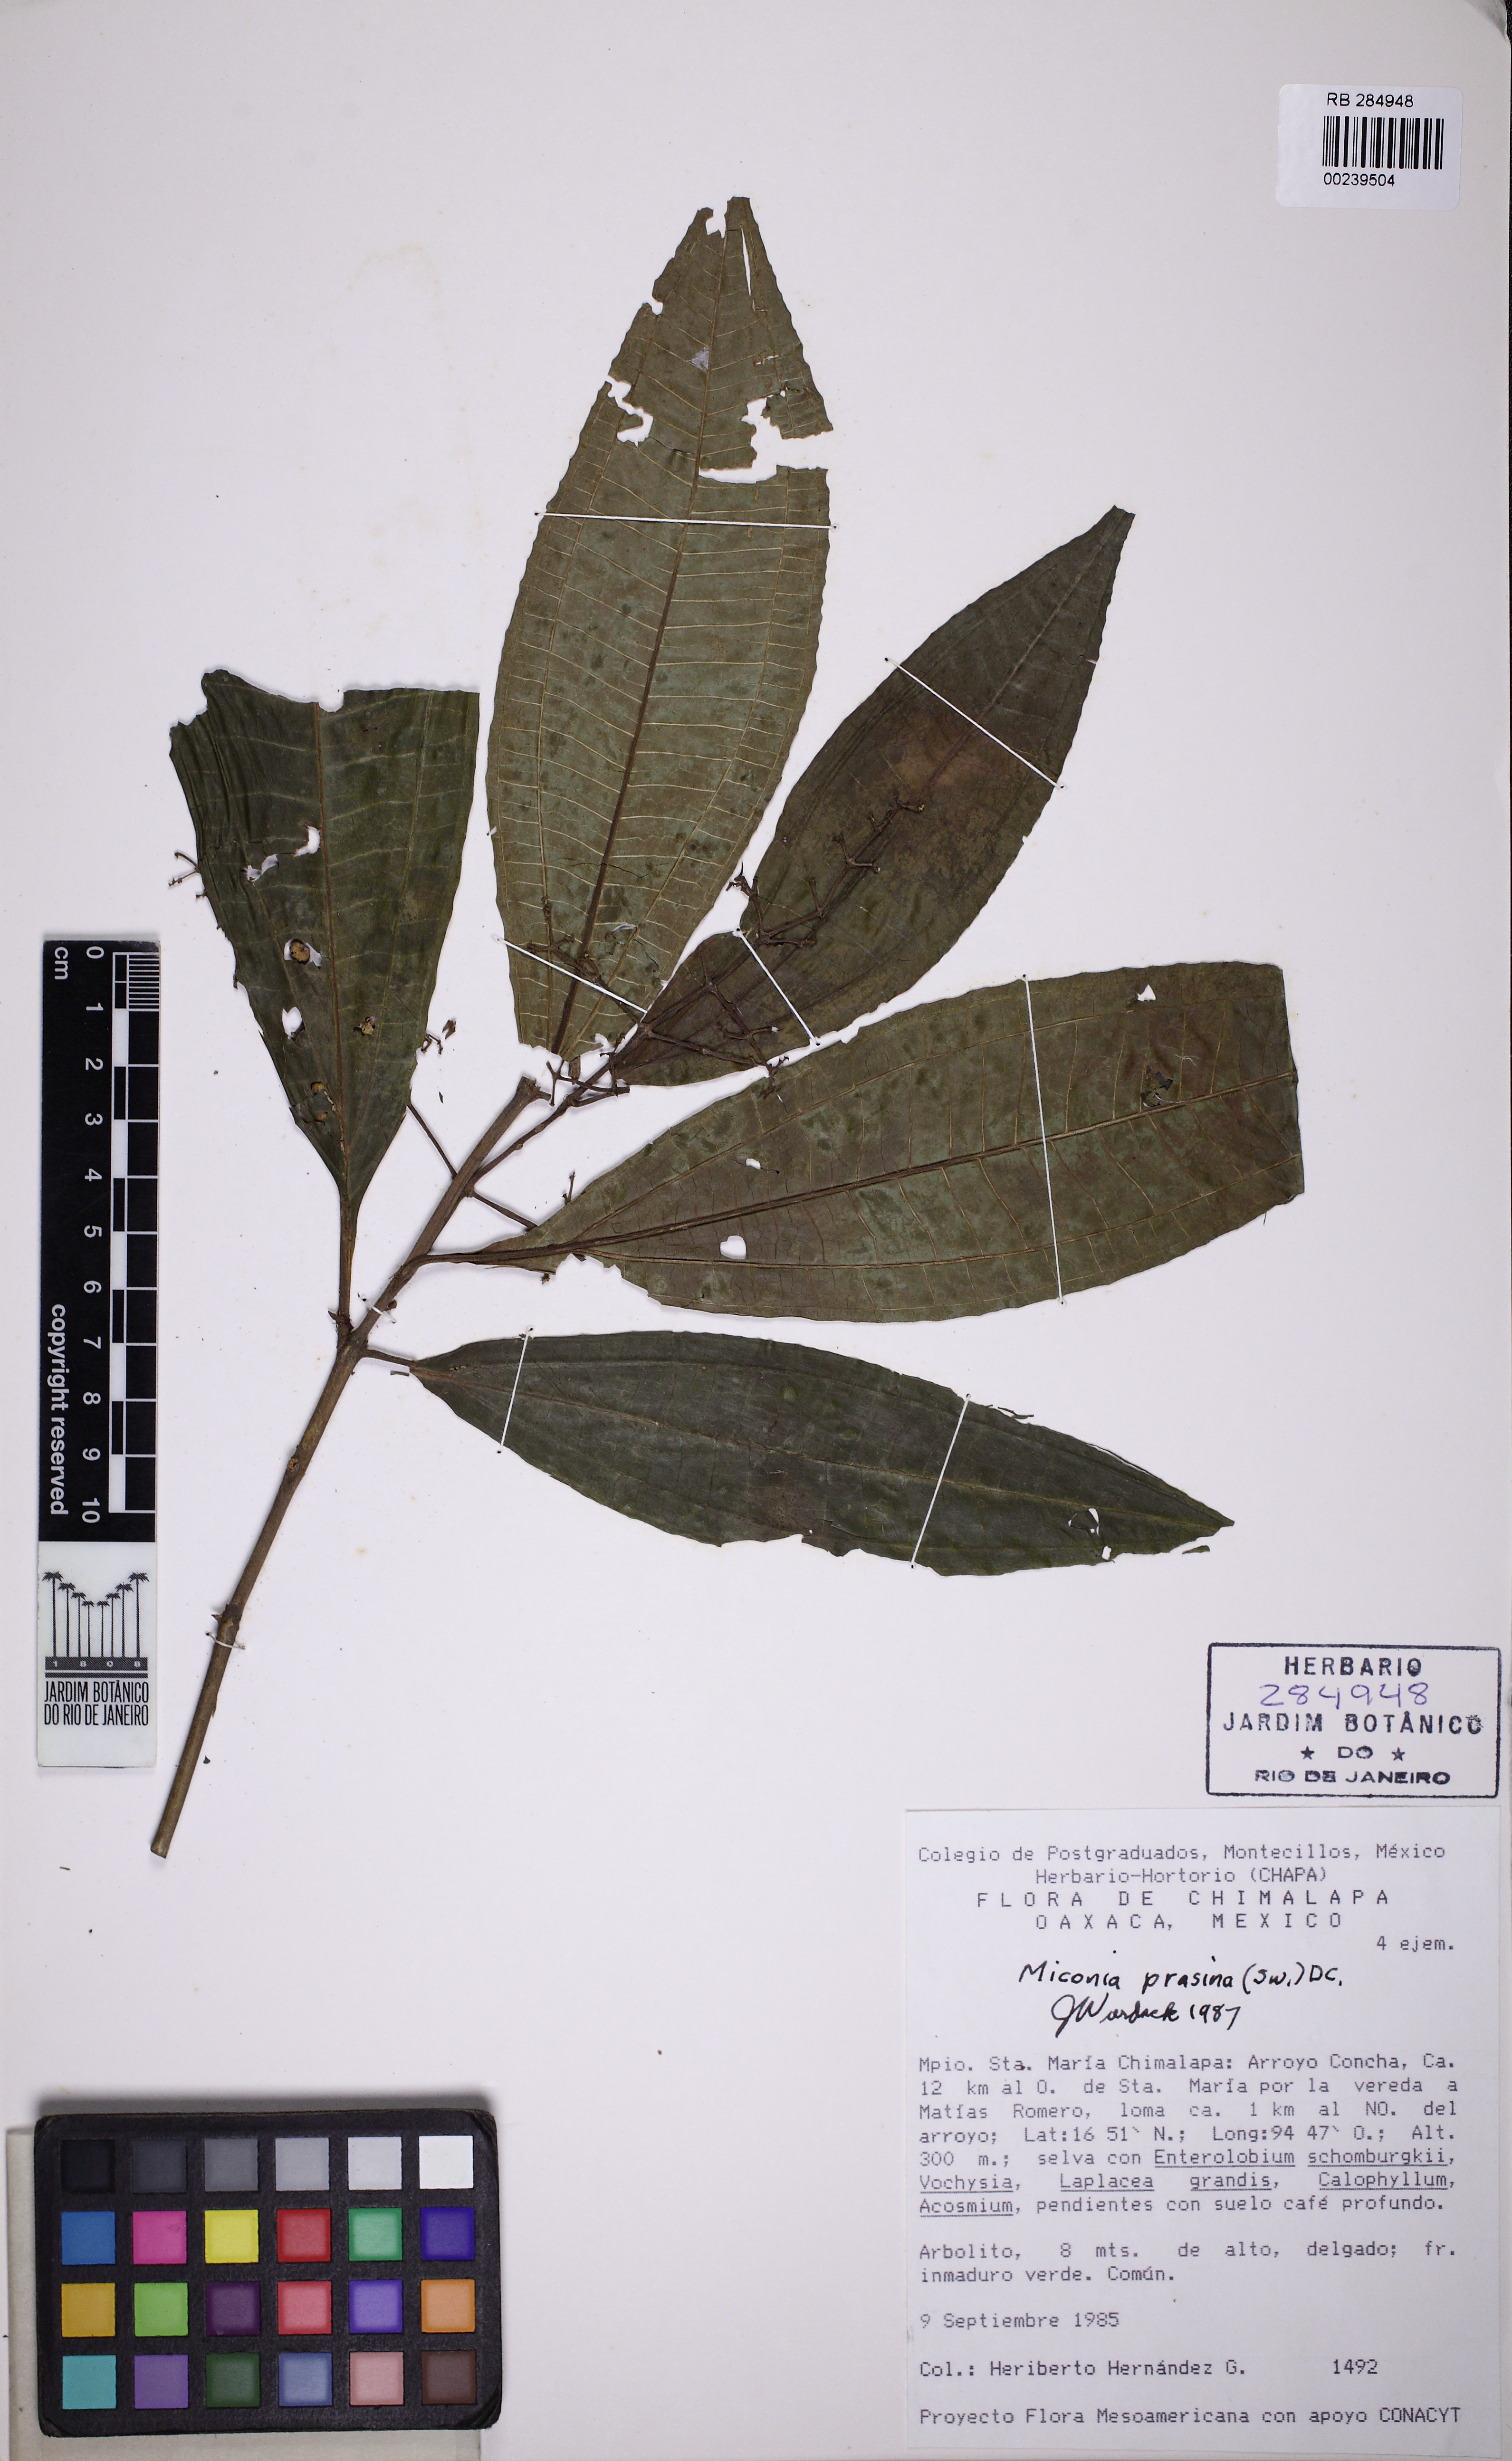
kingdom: Plantae
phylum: Tracheophyta
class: Magnoliopsida
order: Myrtales
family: Melastomataceae
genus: Miconia
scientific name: Miconia prasina
